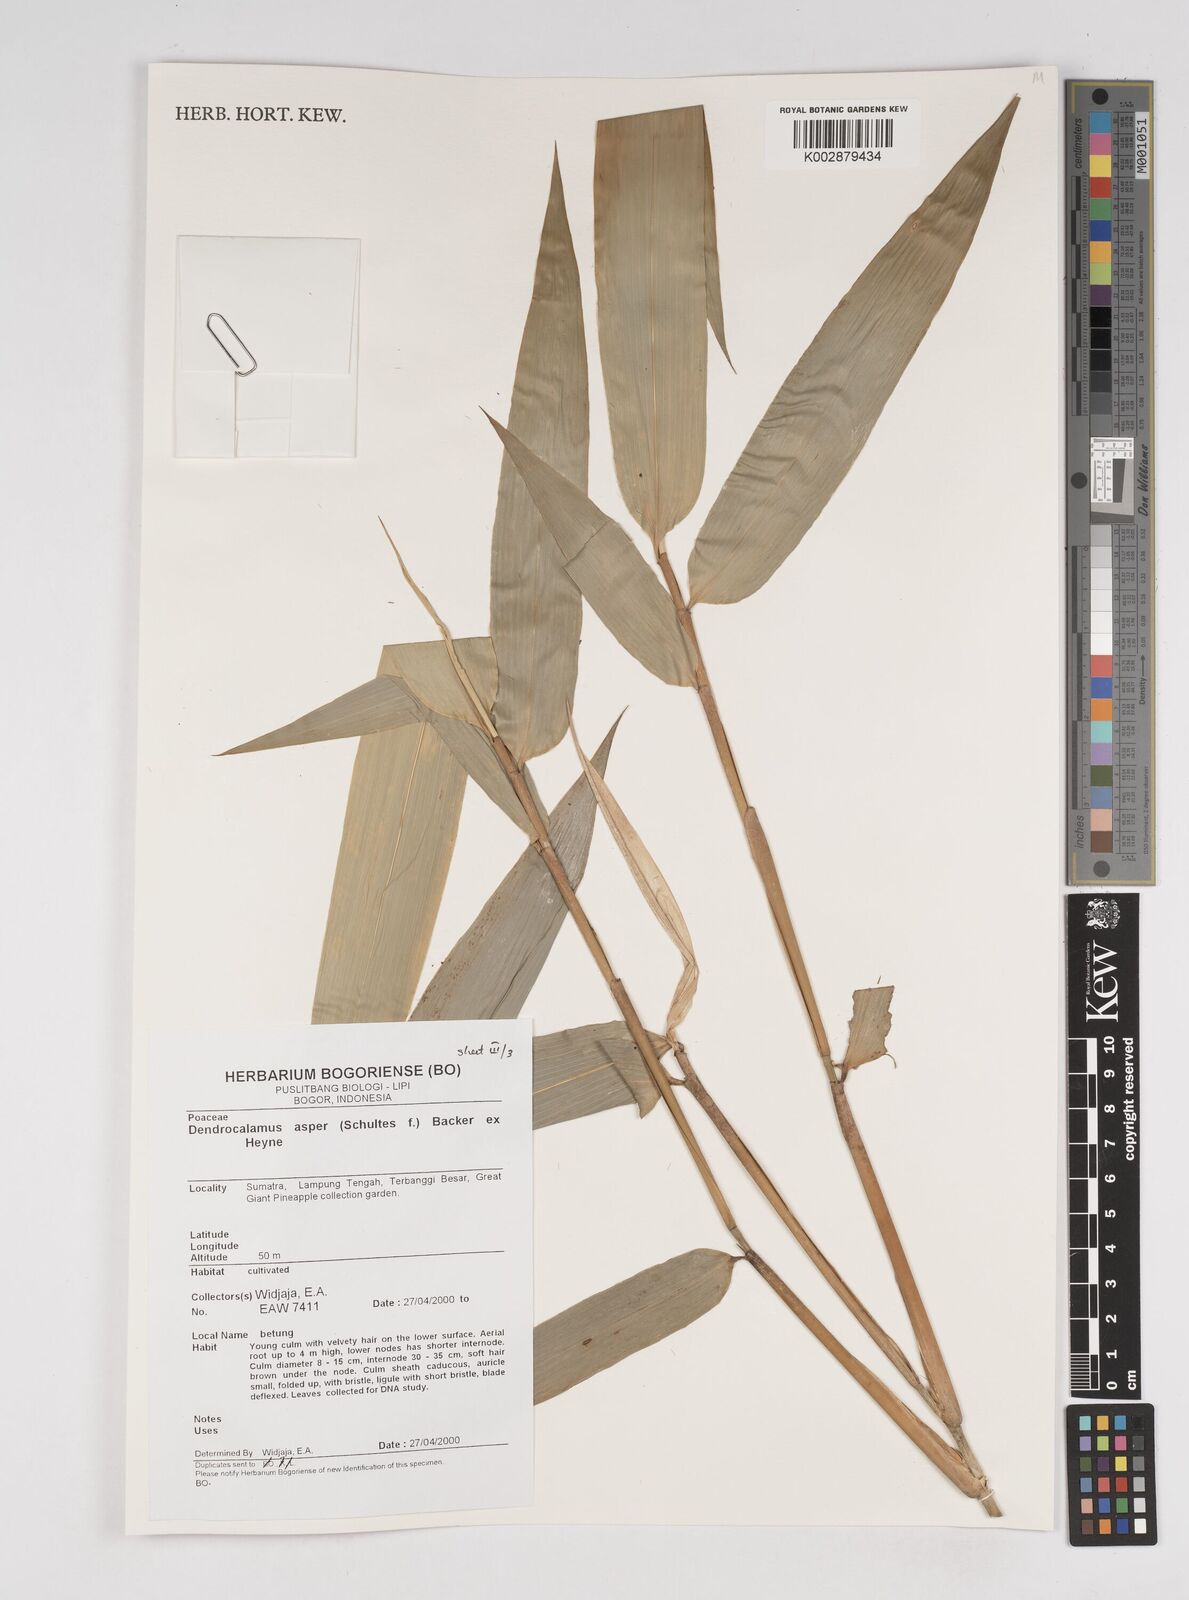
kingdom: Plantae
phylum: Tracheophyta
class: Liliopsida
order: Poales
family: Poaceae
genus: Dendrocalamus
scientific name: Dendrocalamus asper
